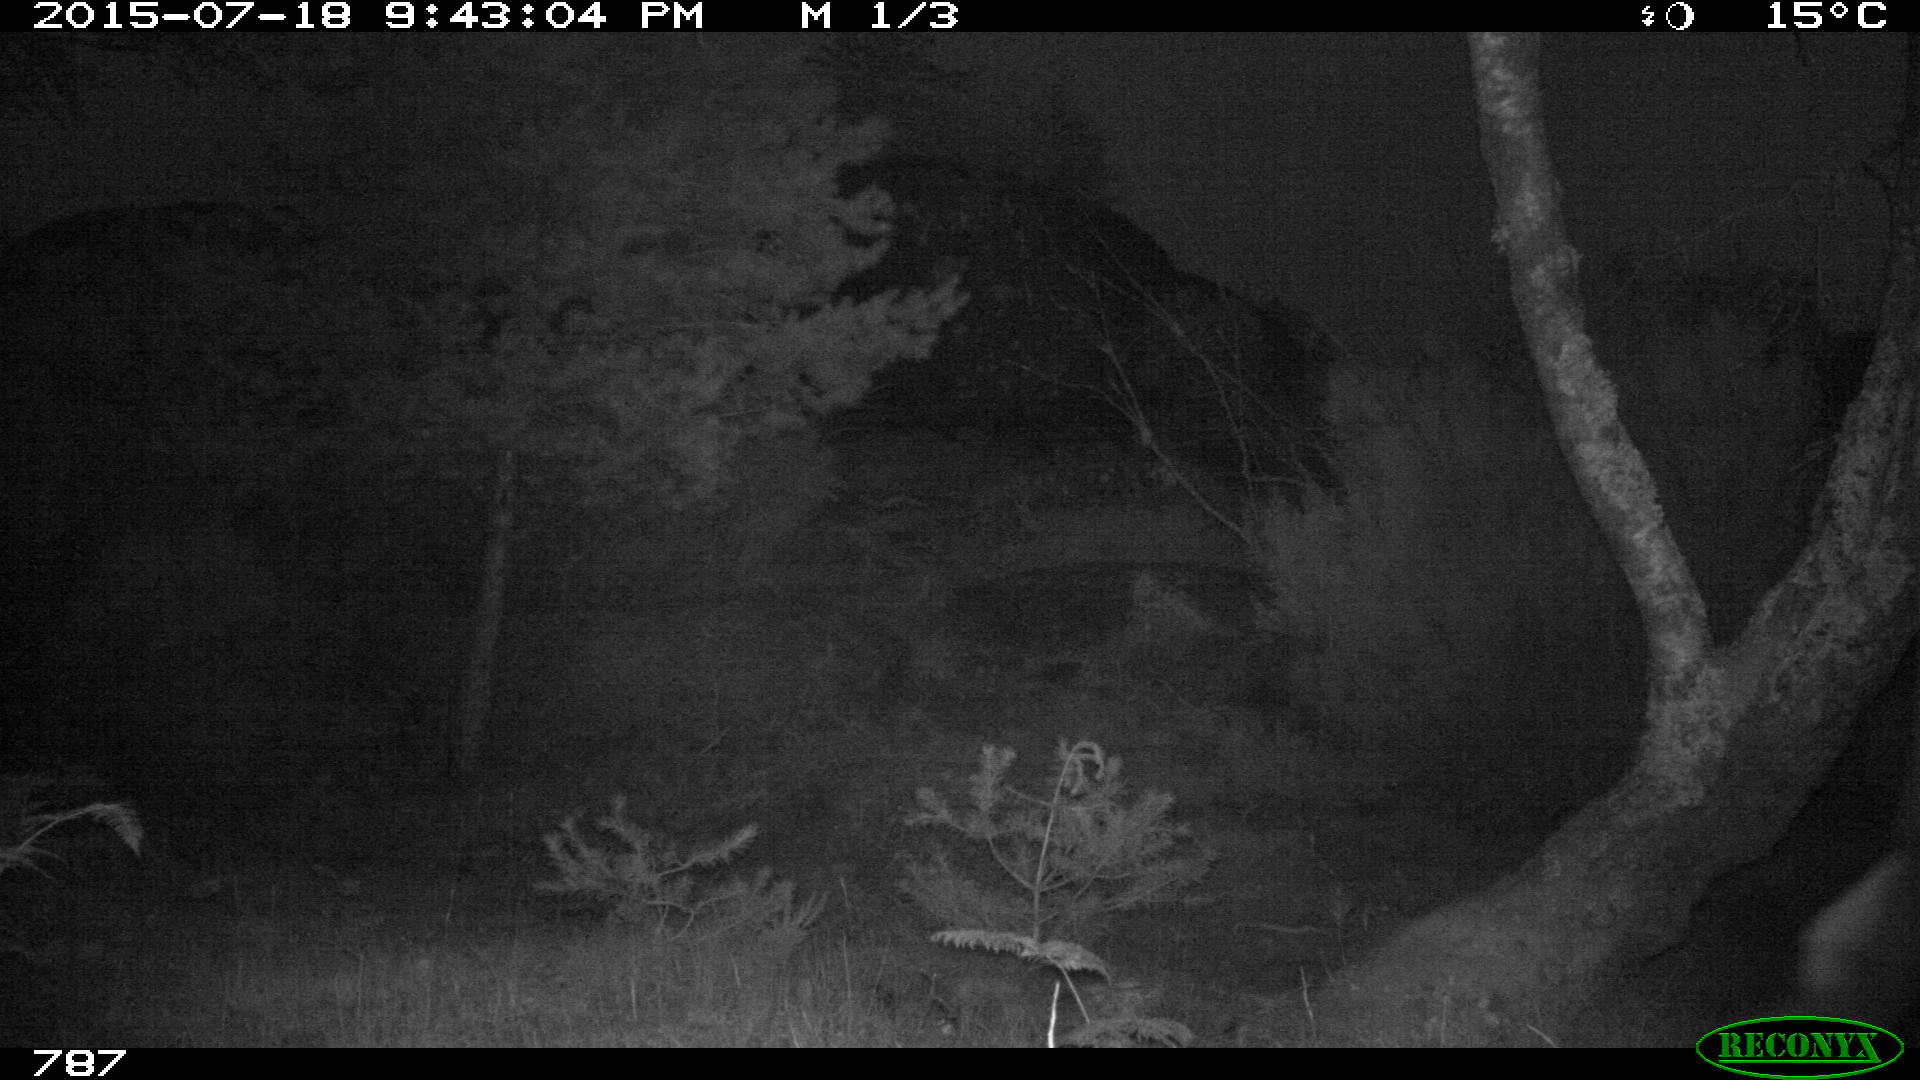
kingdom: Animalia
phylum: Chordata
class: Mammalia
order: Artiodactyla
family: Bovidae
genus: Bos
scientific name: Bos taurus
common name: Domesticated cattle
